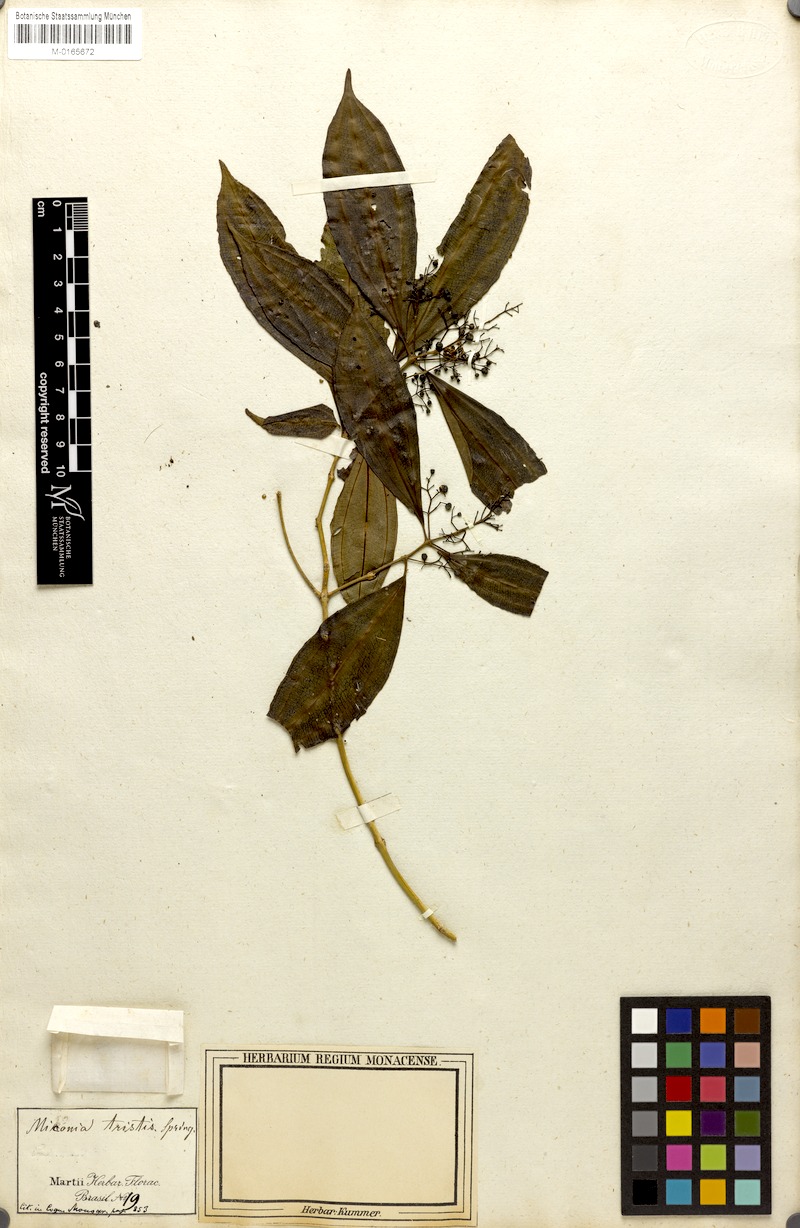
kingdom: Plantae
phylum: Tracheophyta
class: Magnoliopsida
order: Myrtales
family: Melastomataceae
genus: Miconia
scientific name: Miconia tristis
